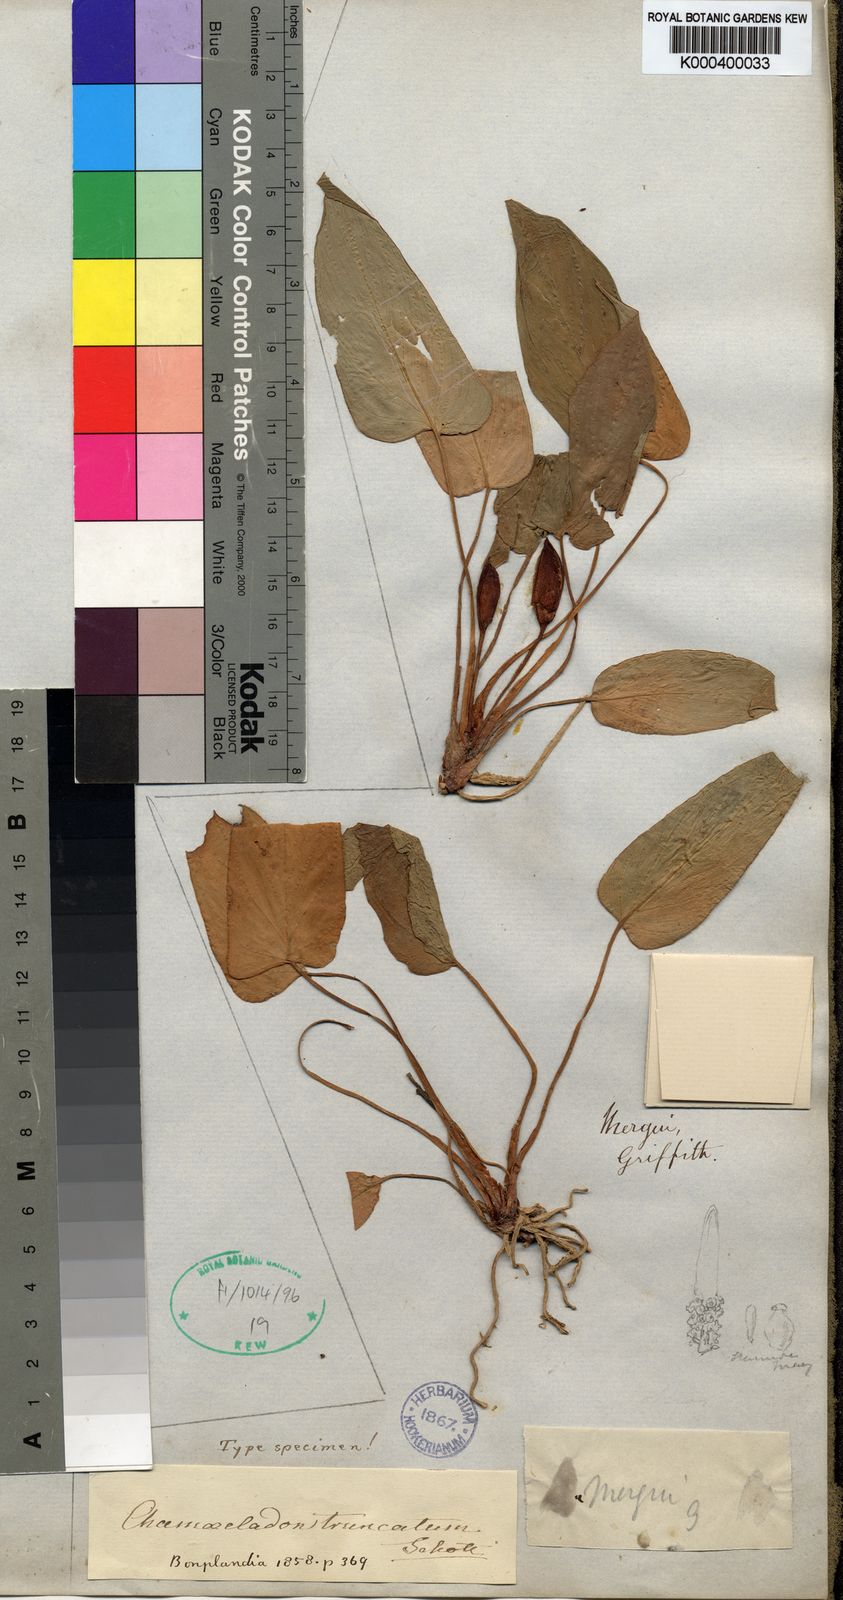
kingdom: Plantae
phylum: Tracheophyta
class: Liliopsida
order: Alismatales
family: Araceae
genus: Homalomena
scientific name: Homalomena truncata
